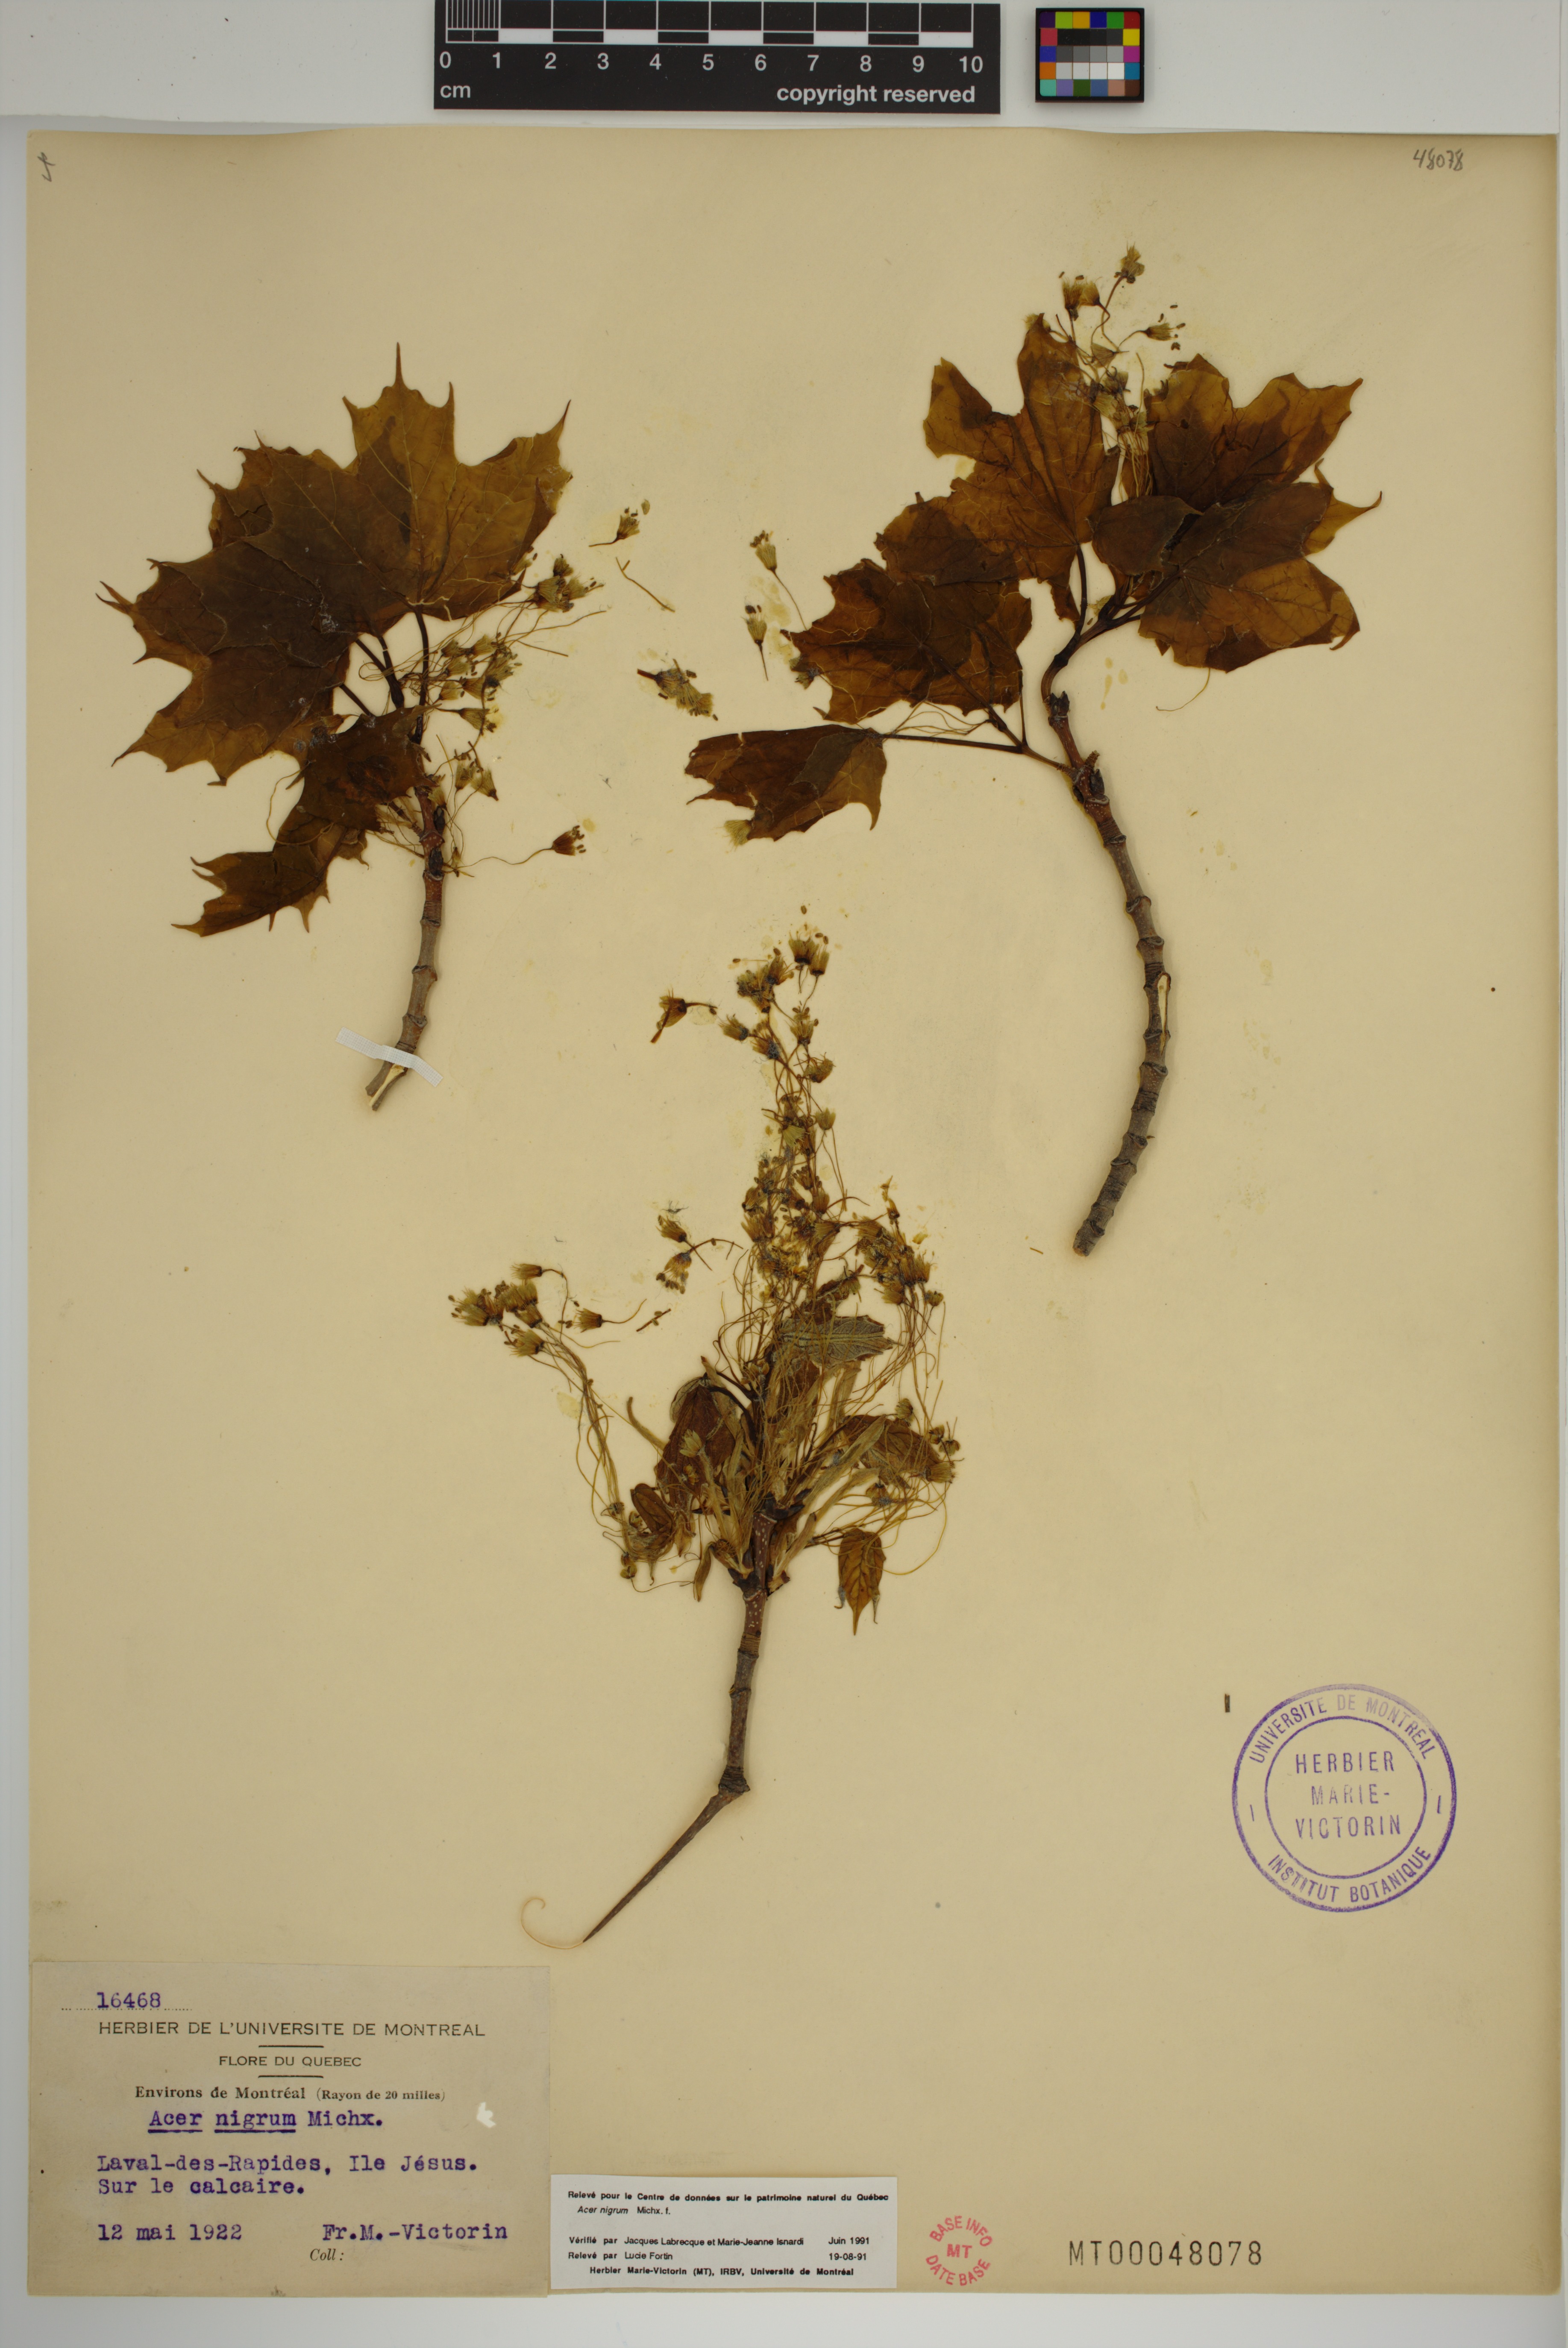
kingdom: Plantae
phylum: Tracheophyta
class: Magnoliopsida
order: Sapindales
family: Sapindaceae
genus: Acer
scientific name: Acer nigrum
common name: Black maple
